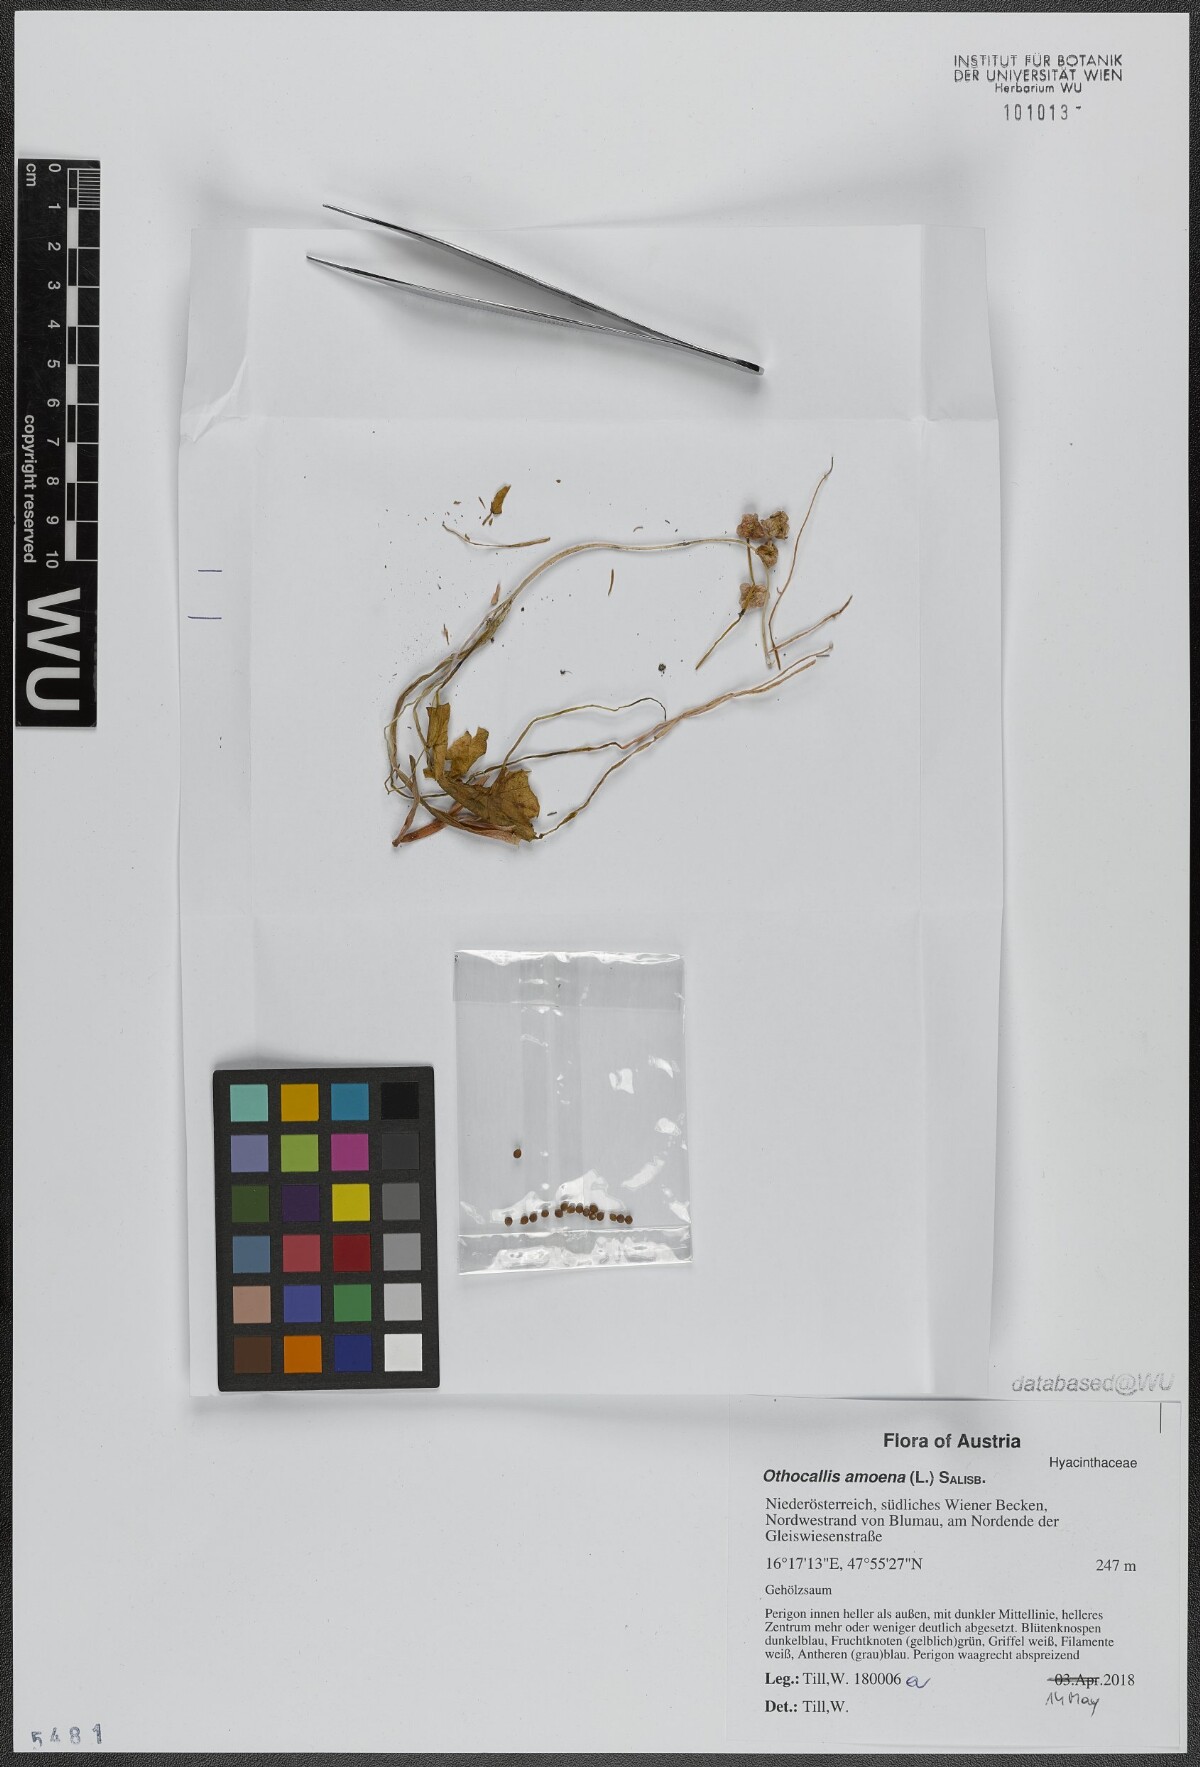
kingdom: Plantae
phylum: Tracheophyta
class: Liliopsida
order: Asparagales
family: Asparagaceae
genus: Scilla
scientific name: Scilla amoena
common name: Star-hyacinth
